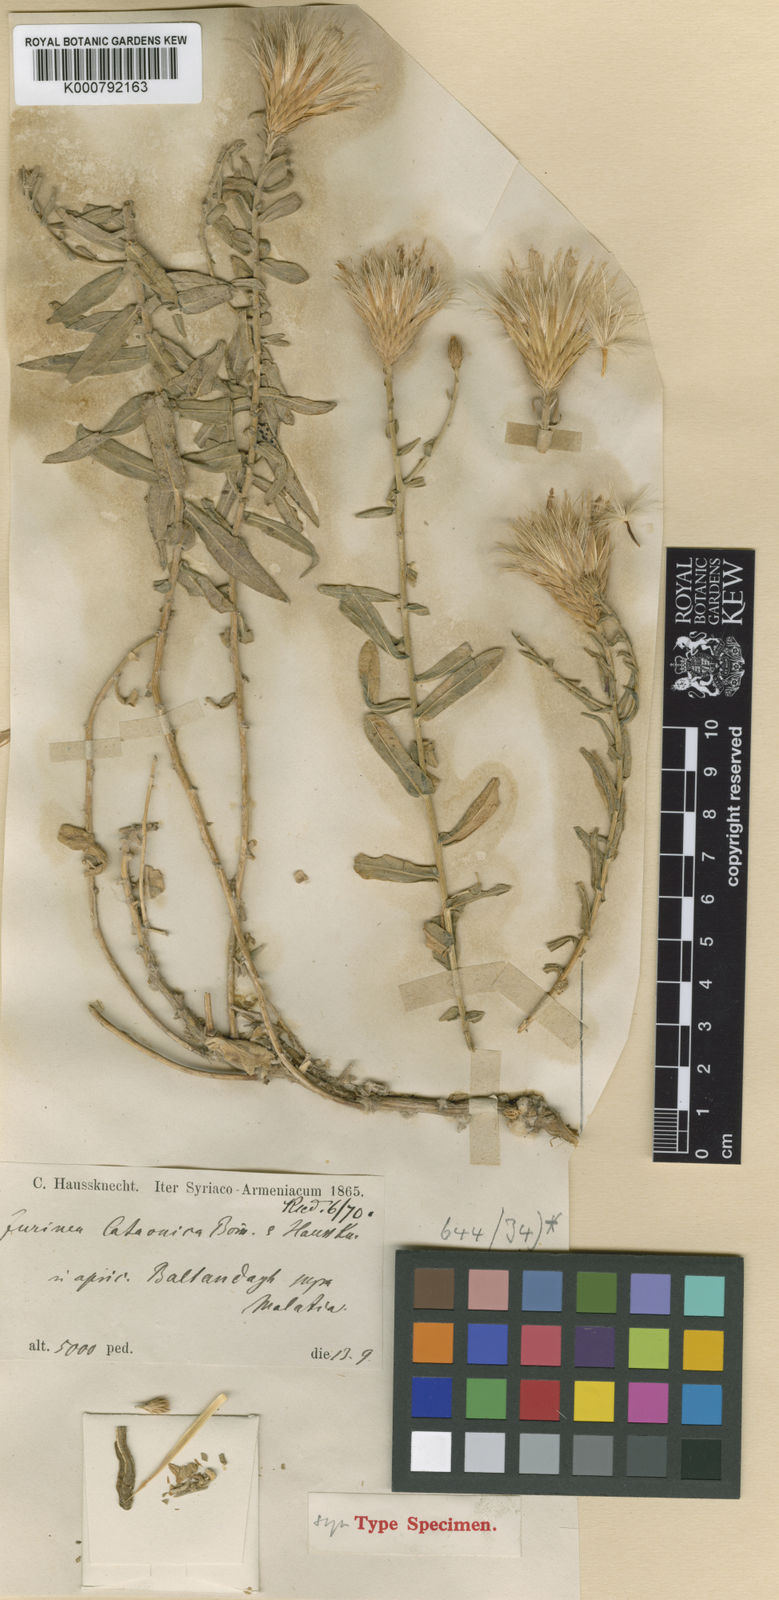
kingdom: Plantae
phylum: Tracheophyta
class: Magnoliopsida
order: Asterales
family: Asteraceae
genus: Jurinea
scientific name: Jurinea cataonica
